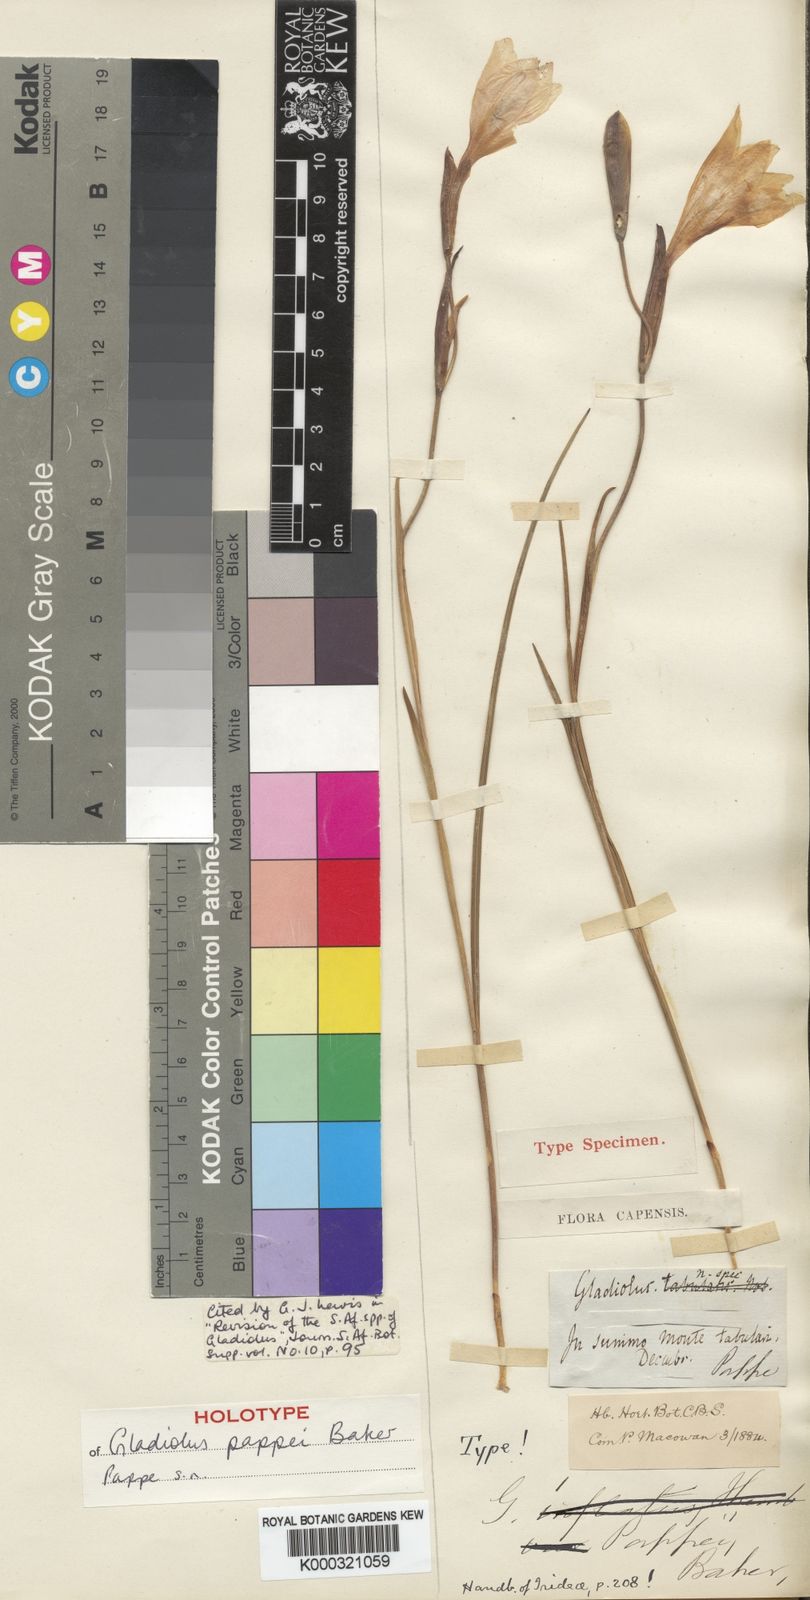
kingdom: Plantae
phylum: Tracheophyta
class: Liliopsida
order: Asparagales
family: Iridaceae
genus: Gladiolus
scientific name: Gladiolus pappei
